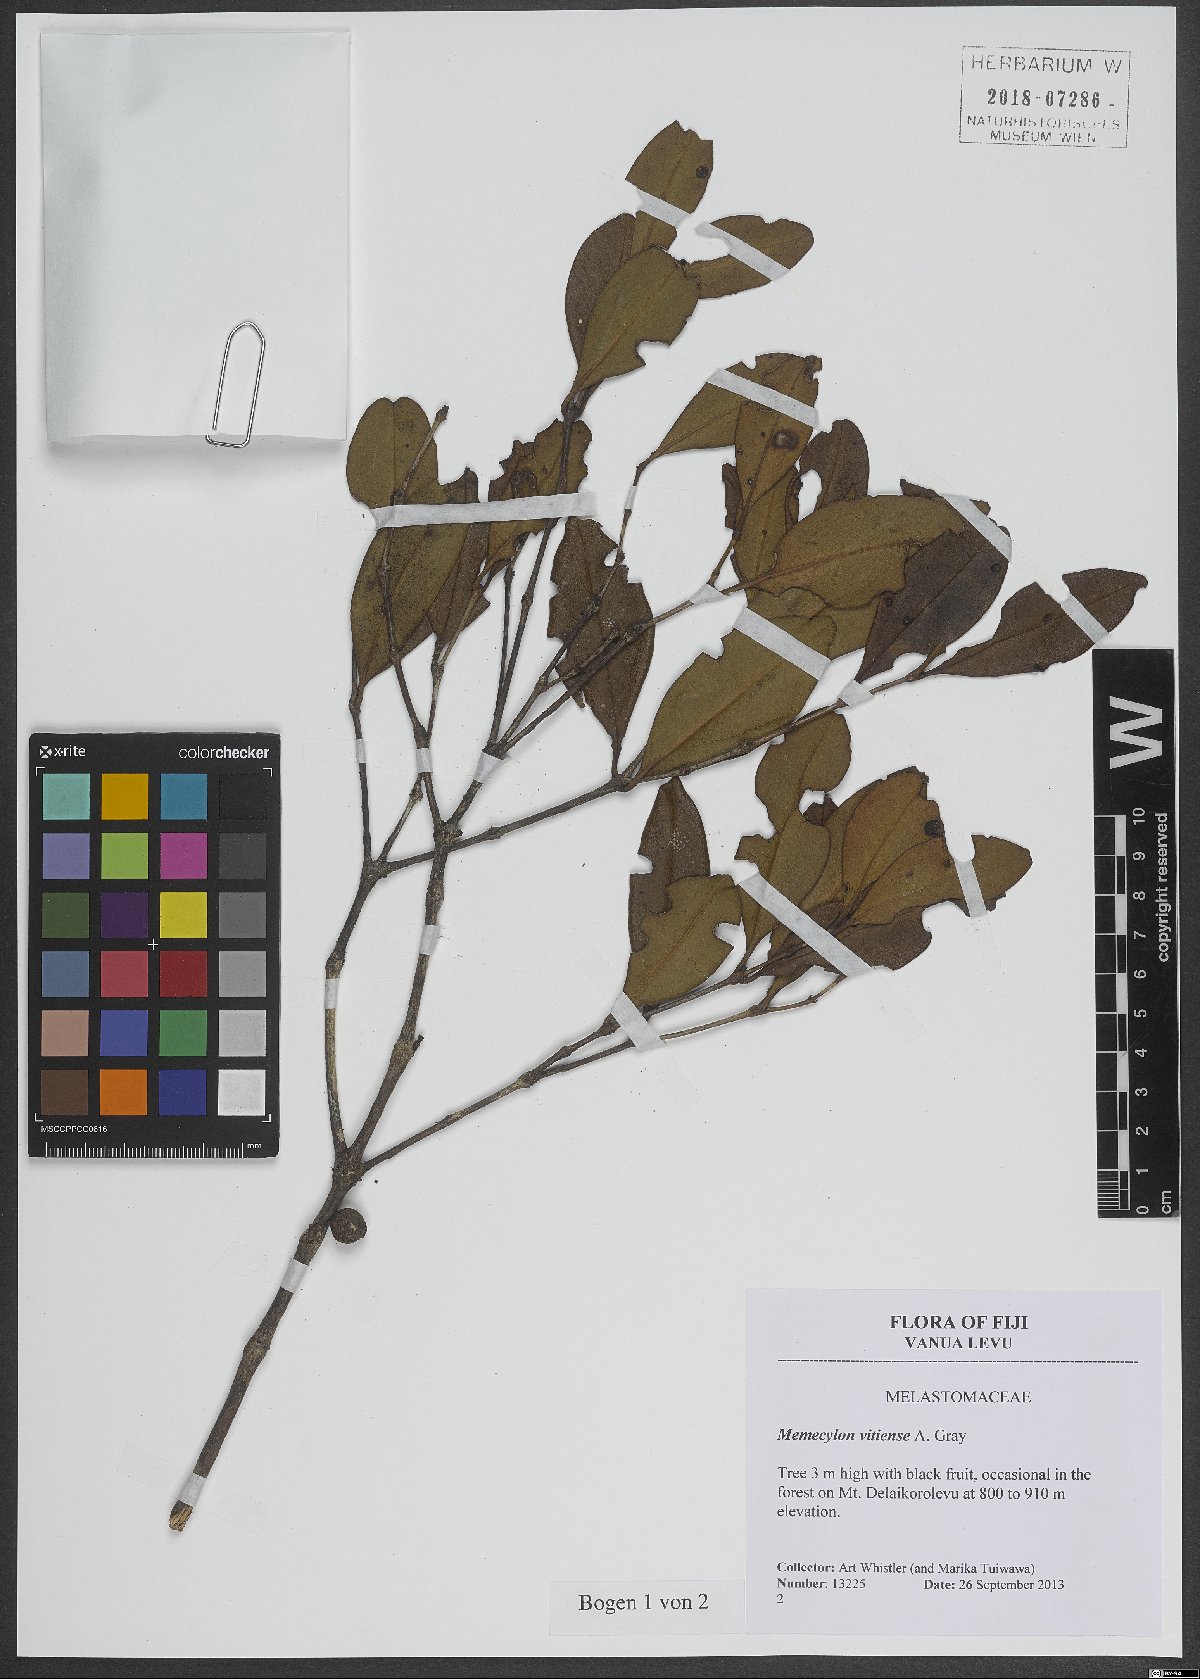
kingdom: Plantae
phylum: Tracheophyta
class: Magnoliopsida
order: Myrtales
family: Melastomataceae
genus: Memecylon
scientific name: Memecylon vitiense
